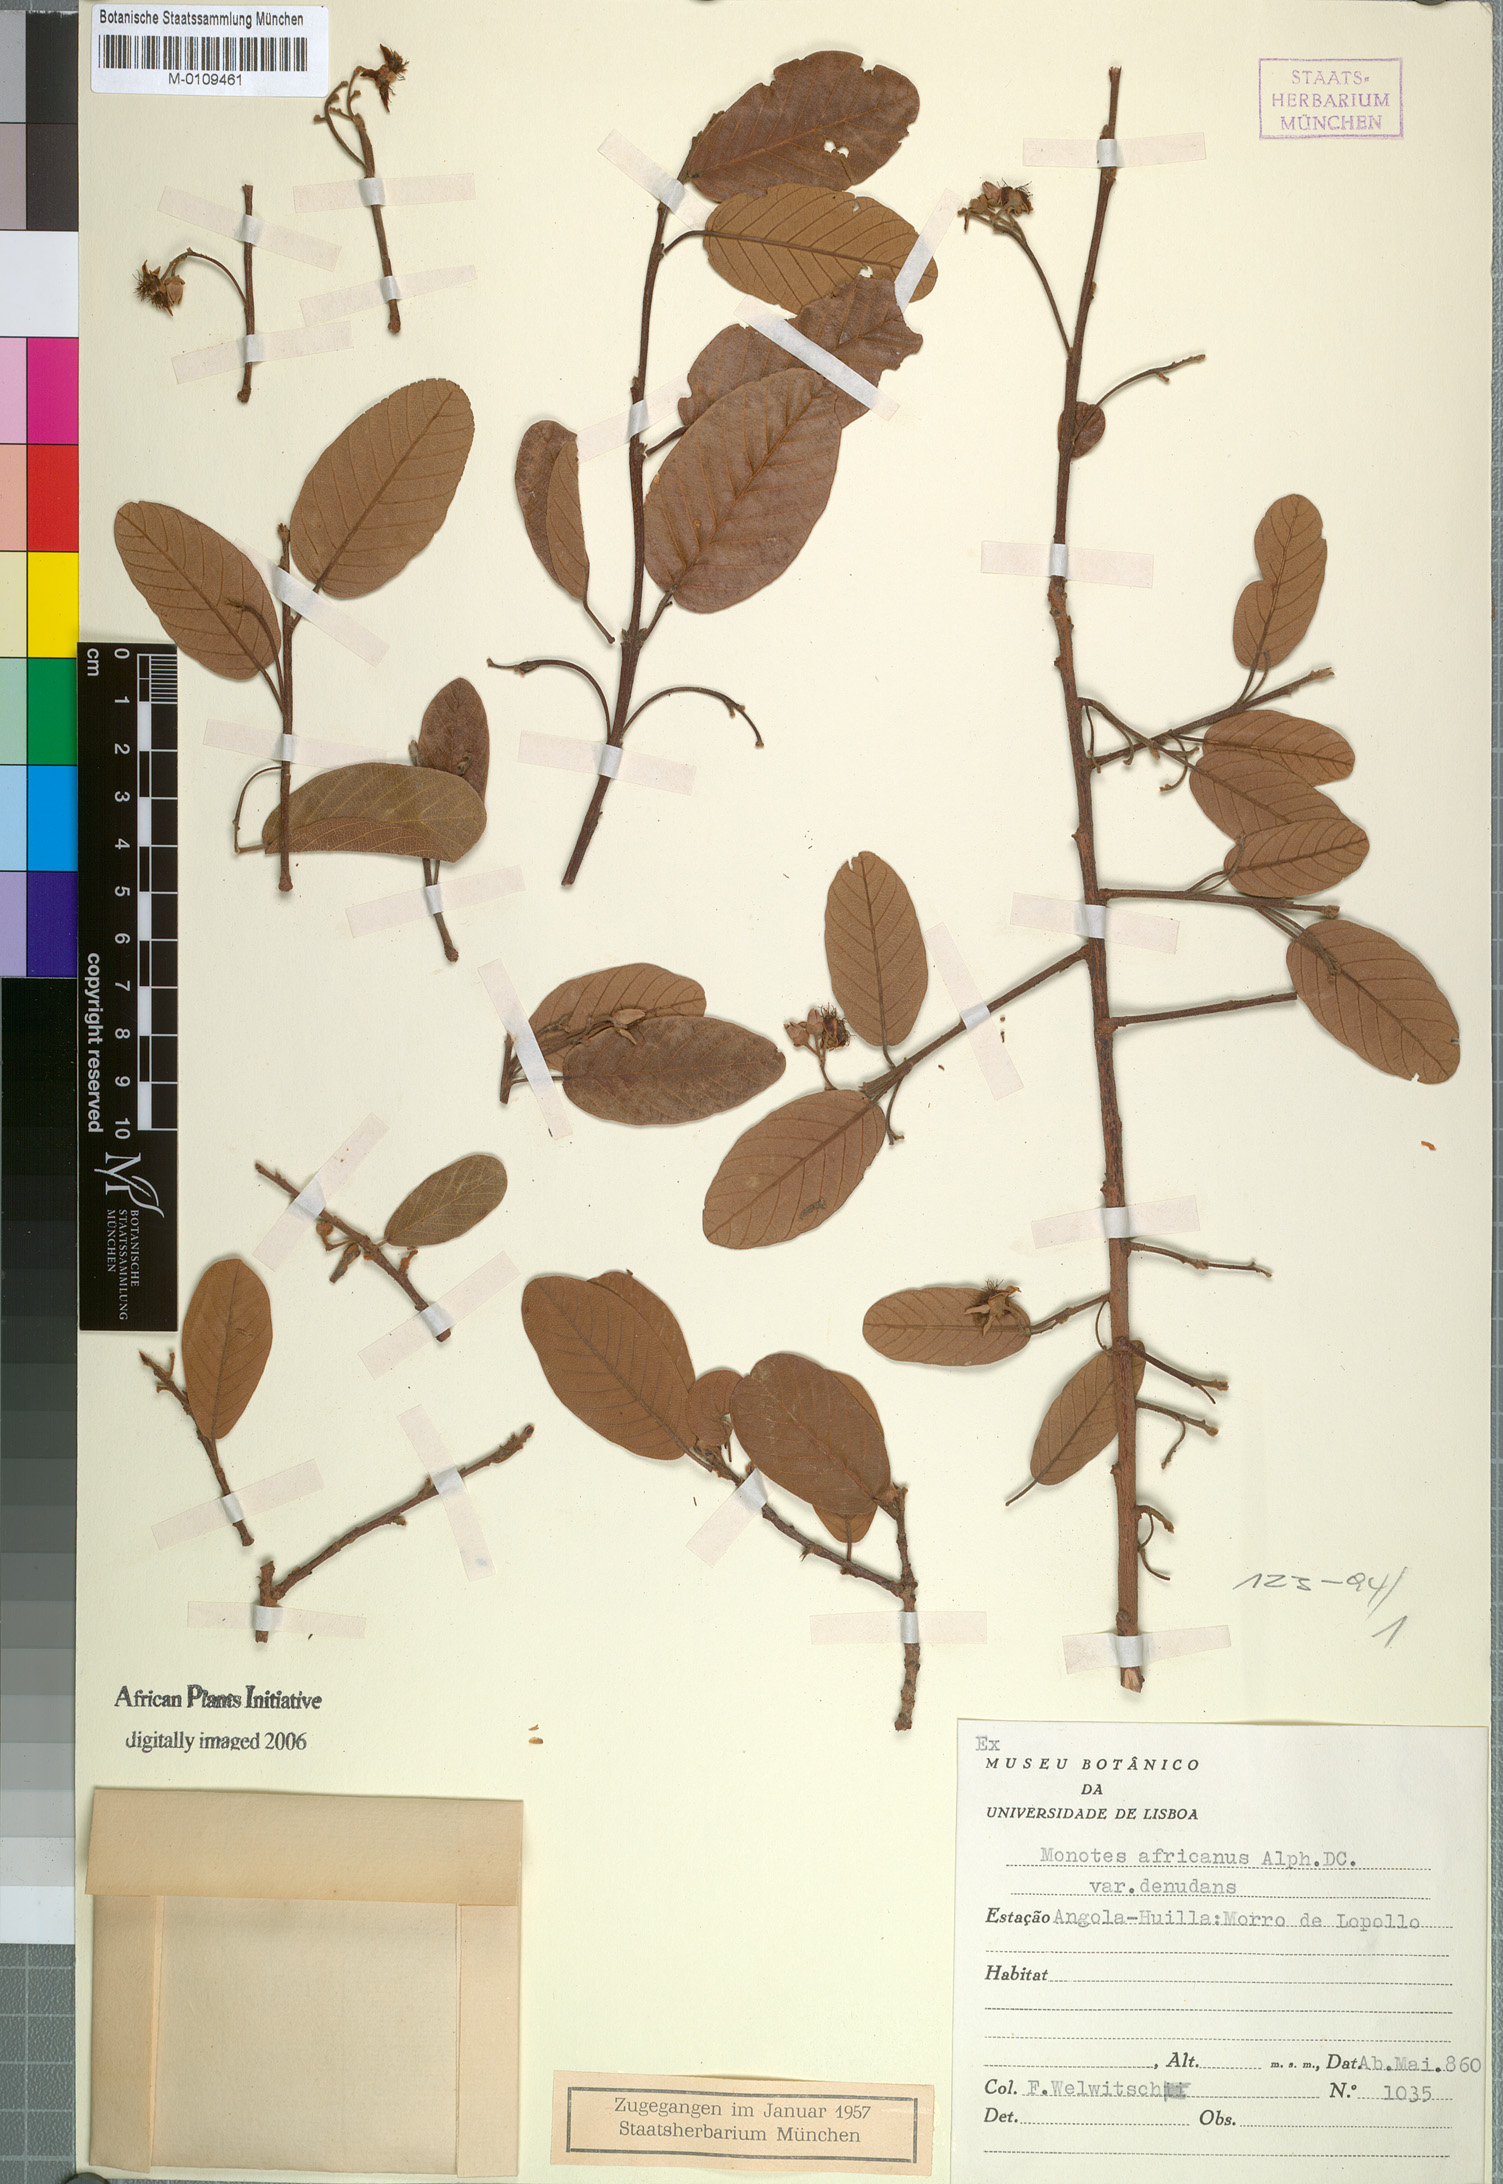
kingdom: Plantae
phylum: Tracheophyta
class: Magnoliopsida
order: Malvales
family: Dipterocarpaceae
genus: Monotes
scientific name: Monotes africanus
